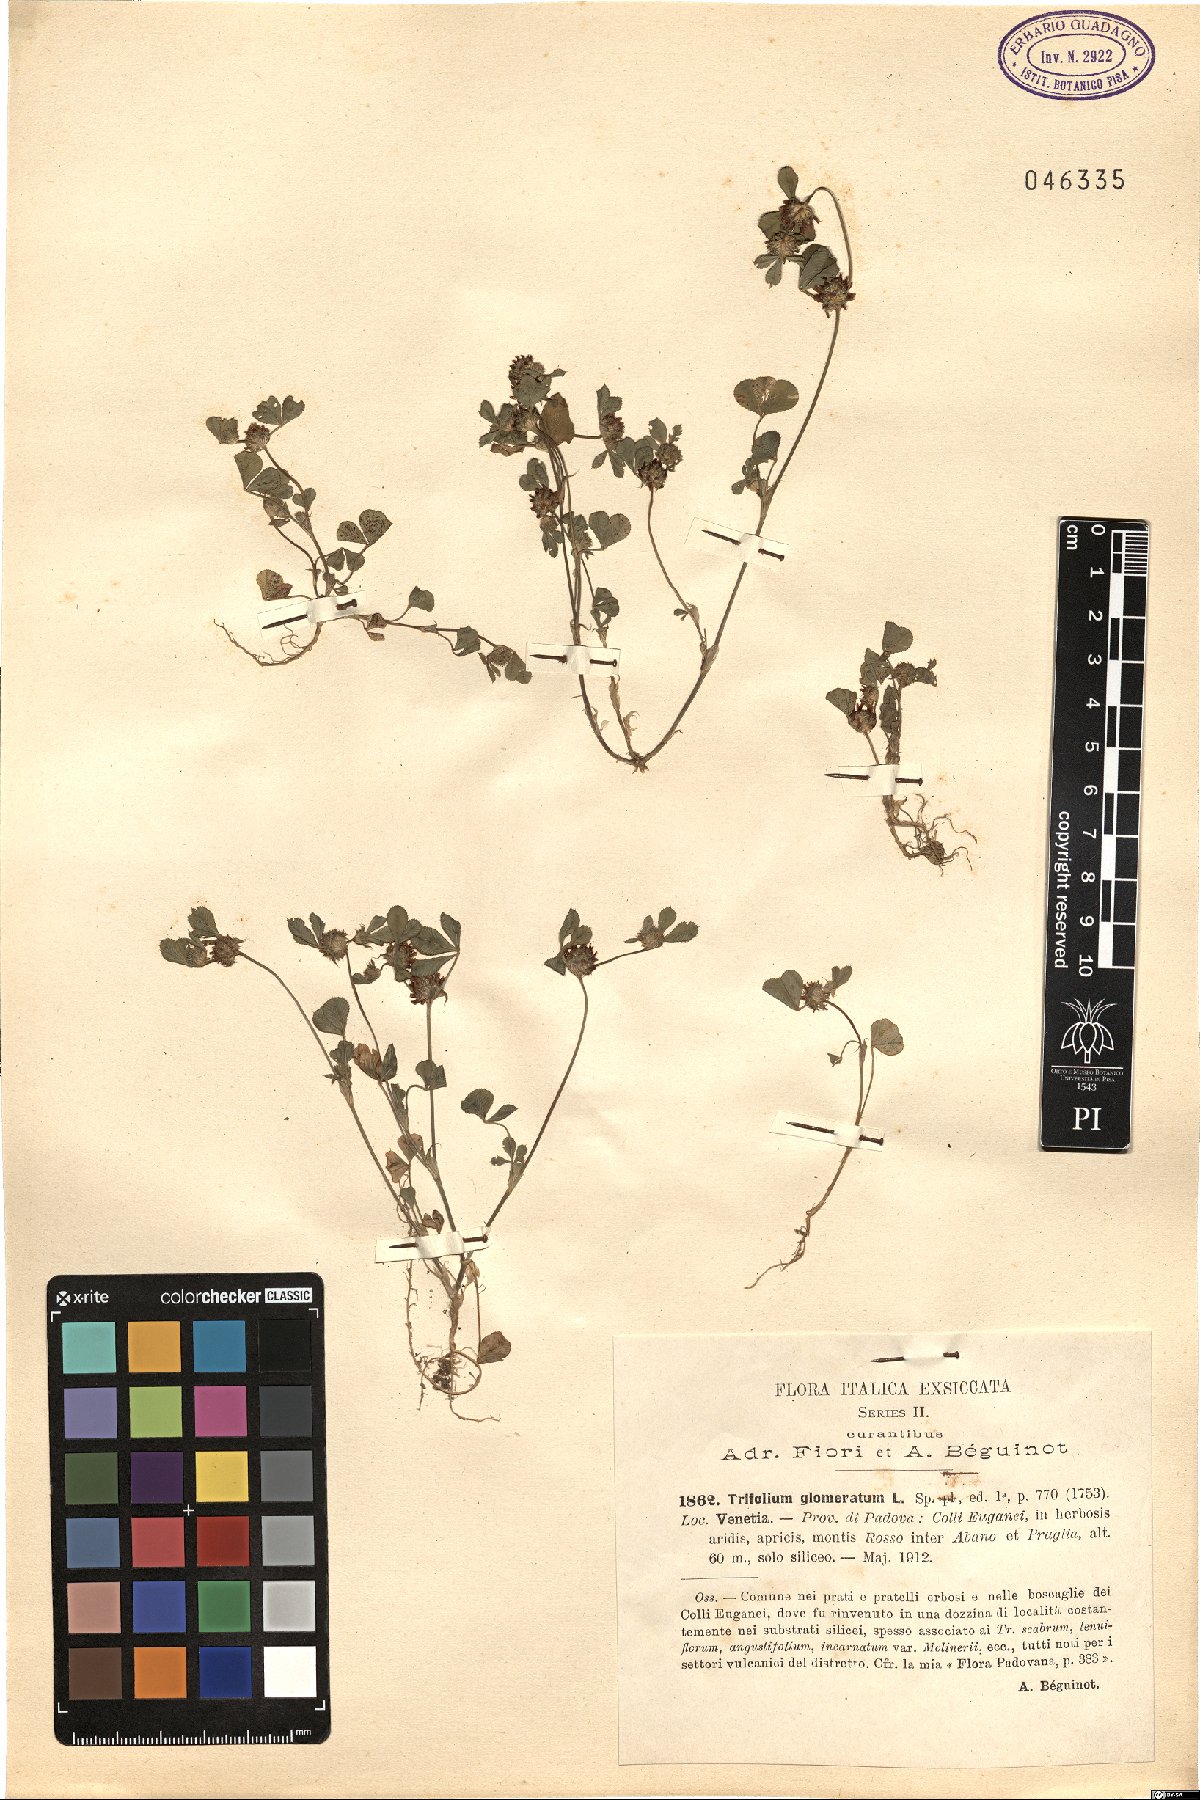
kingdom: Plantae
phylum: Tracheophyta
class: Magnoliopsida
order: Fabales
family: Fabaceae
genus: Trifolium
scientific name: Trifolium glomeratum
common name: Clustered clover
